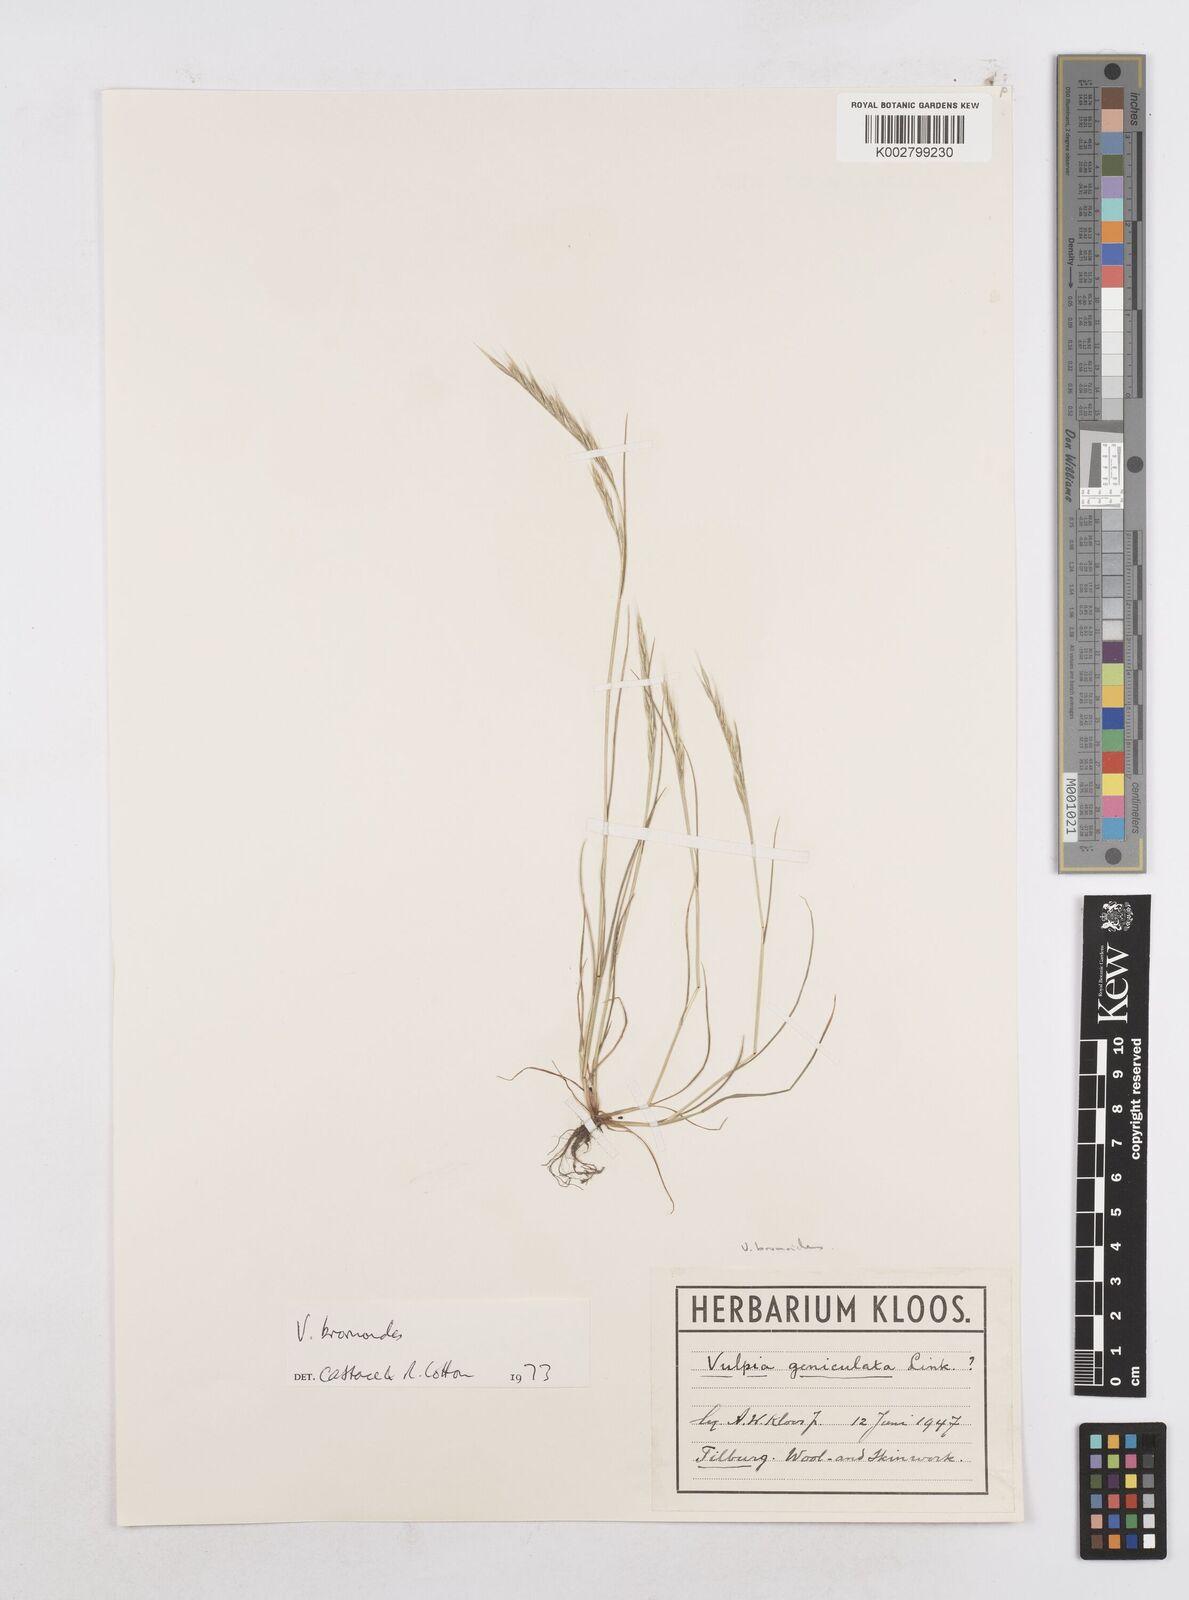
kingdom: Plantae
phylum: Tracheophyta
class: Liliopsida
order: Poales
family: Poaceae
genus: Festuca
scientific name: Festuca bromoides
